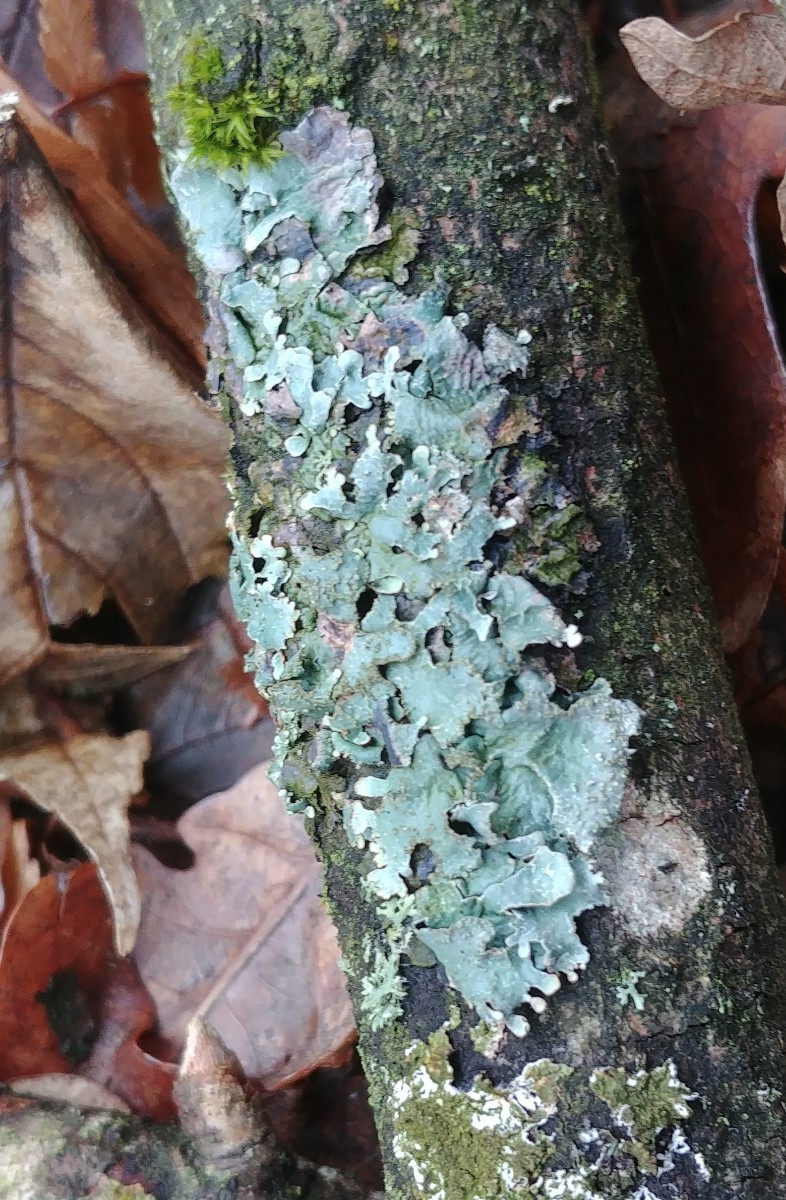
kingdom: Fungi
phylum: Ascomycota
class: Lecanoromycetes
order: Lecanorales
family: Parmeliaceae
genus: Parmelia
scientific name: Parmelia sulcata
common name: rynket skållav
